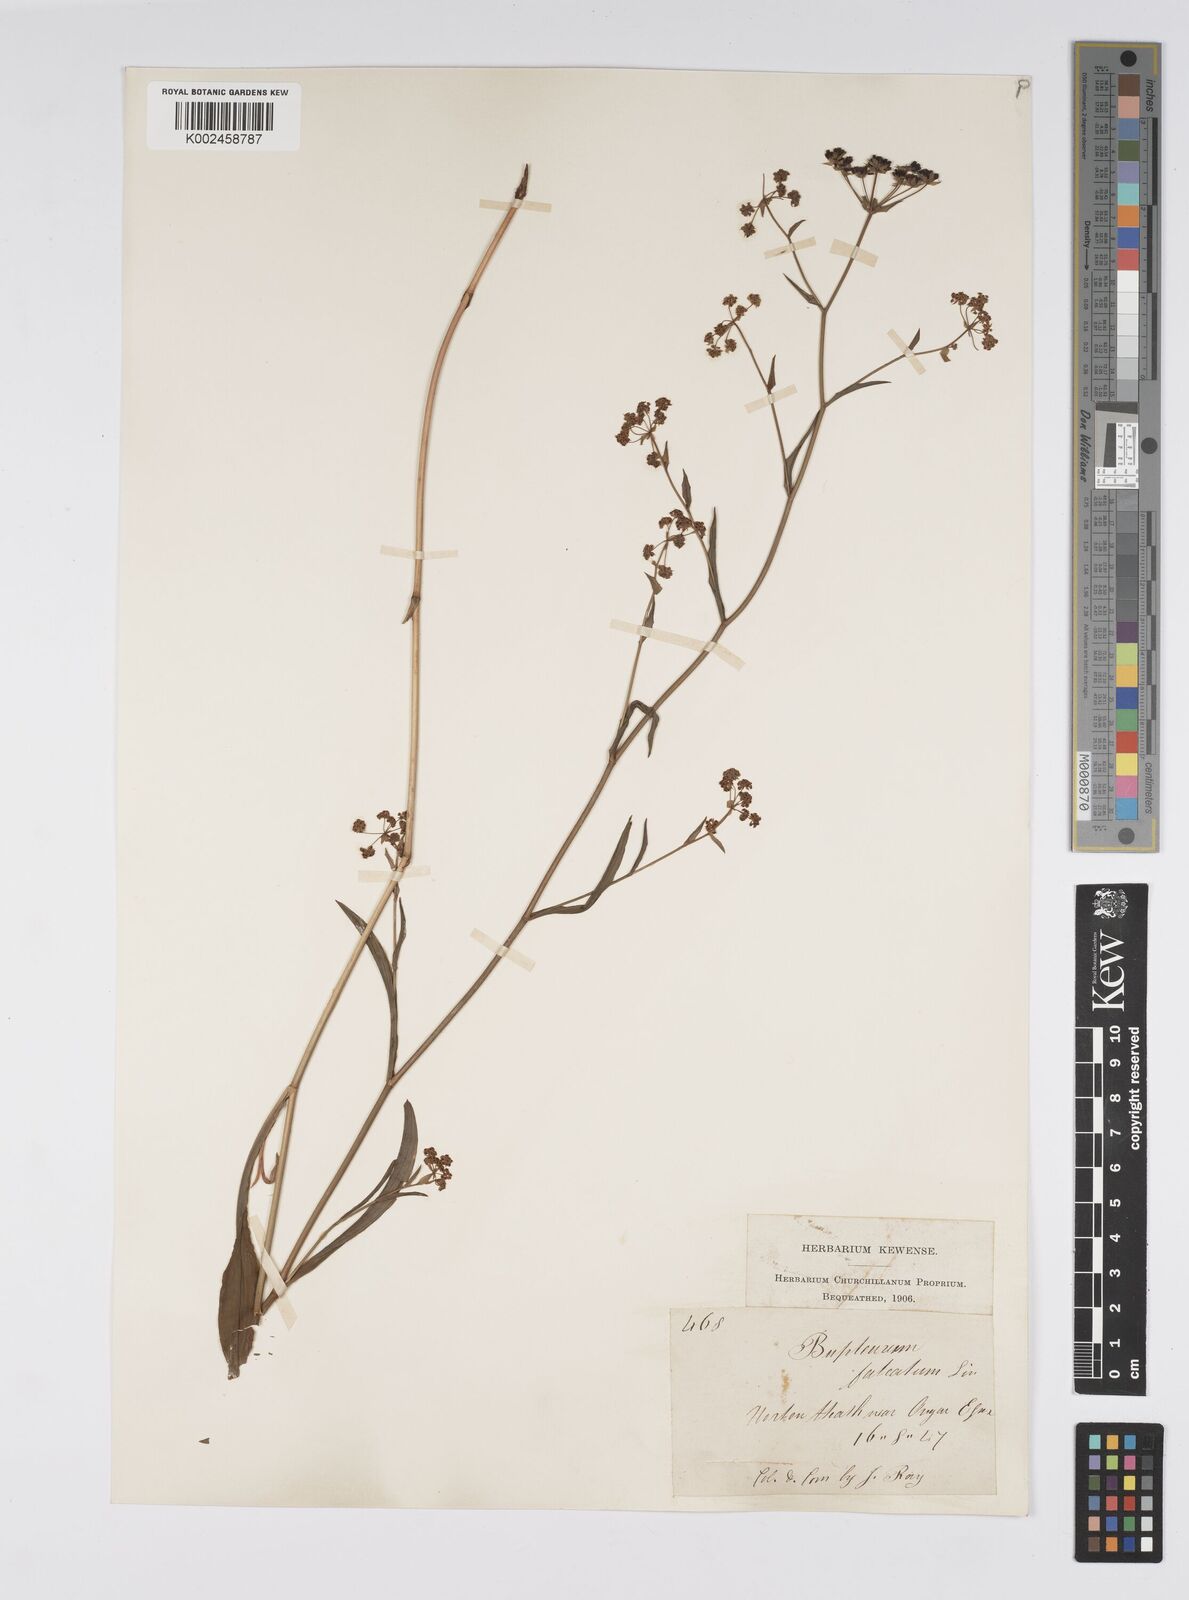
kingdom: Plantae
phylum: Tracheophyta
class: Magnoliopsida
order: Apiales
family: Apiaceae
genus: Bupleurum
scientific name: Bupleurum falcatum
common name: Sickle-leaved hare's-ear
